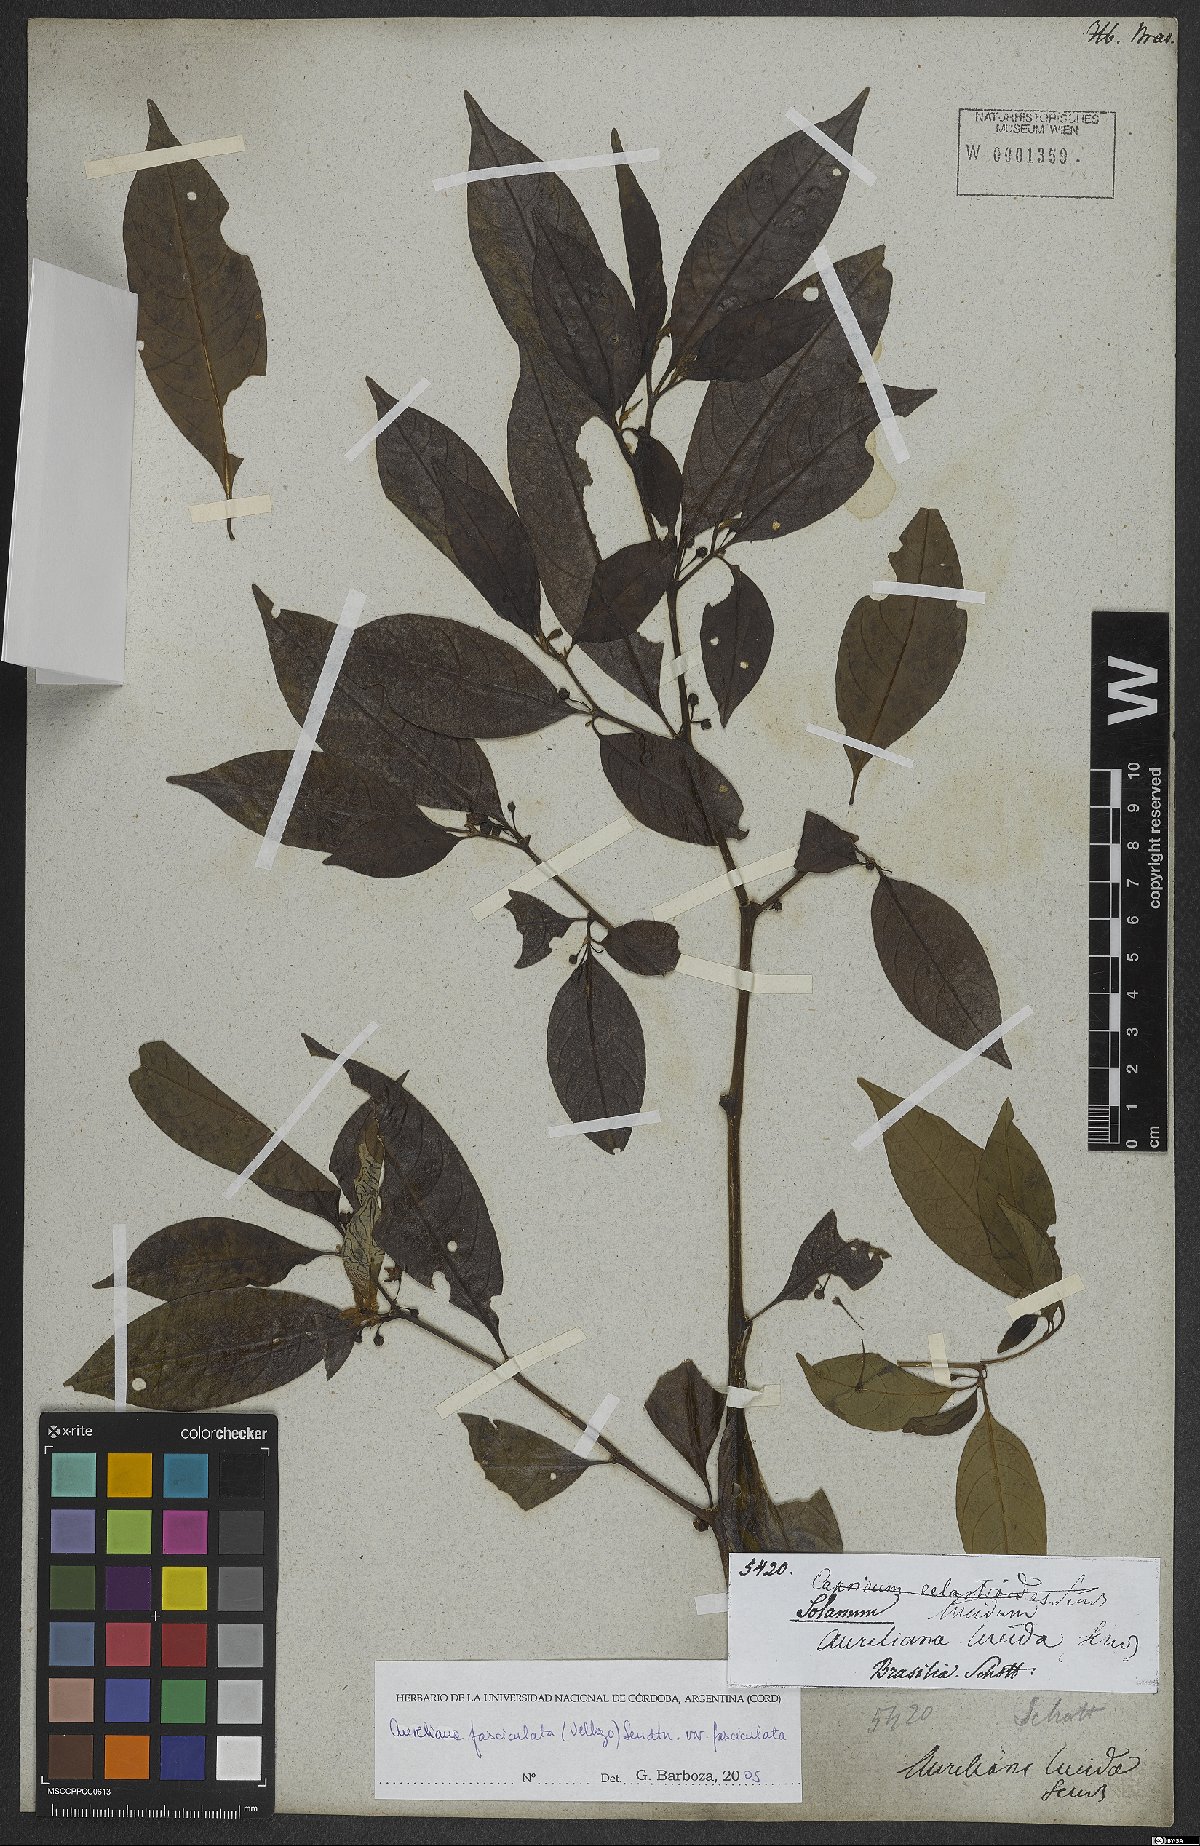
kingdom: Plantae
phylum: Tracheophyta
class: Magnoliopsida
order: Solanales
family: Solanaceae
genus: Athenaea
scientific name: Athenaea fasciculata
